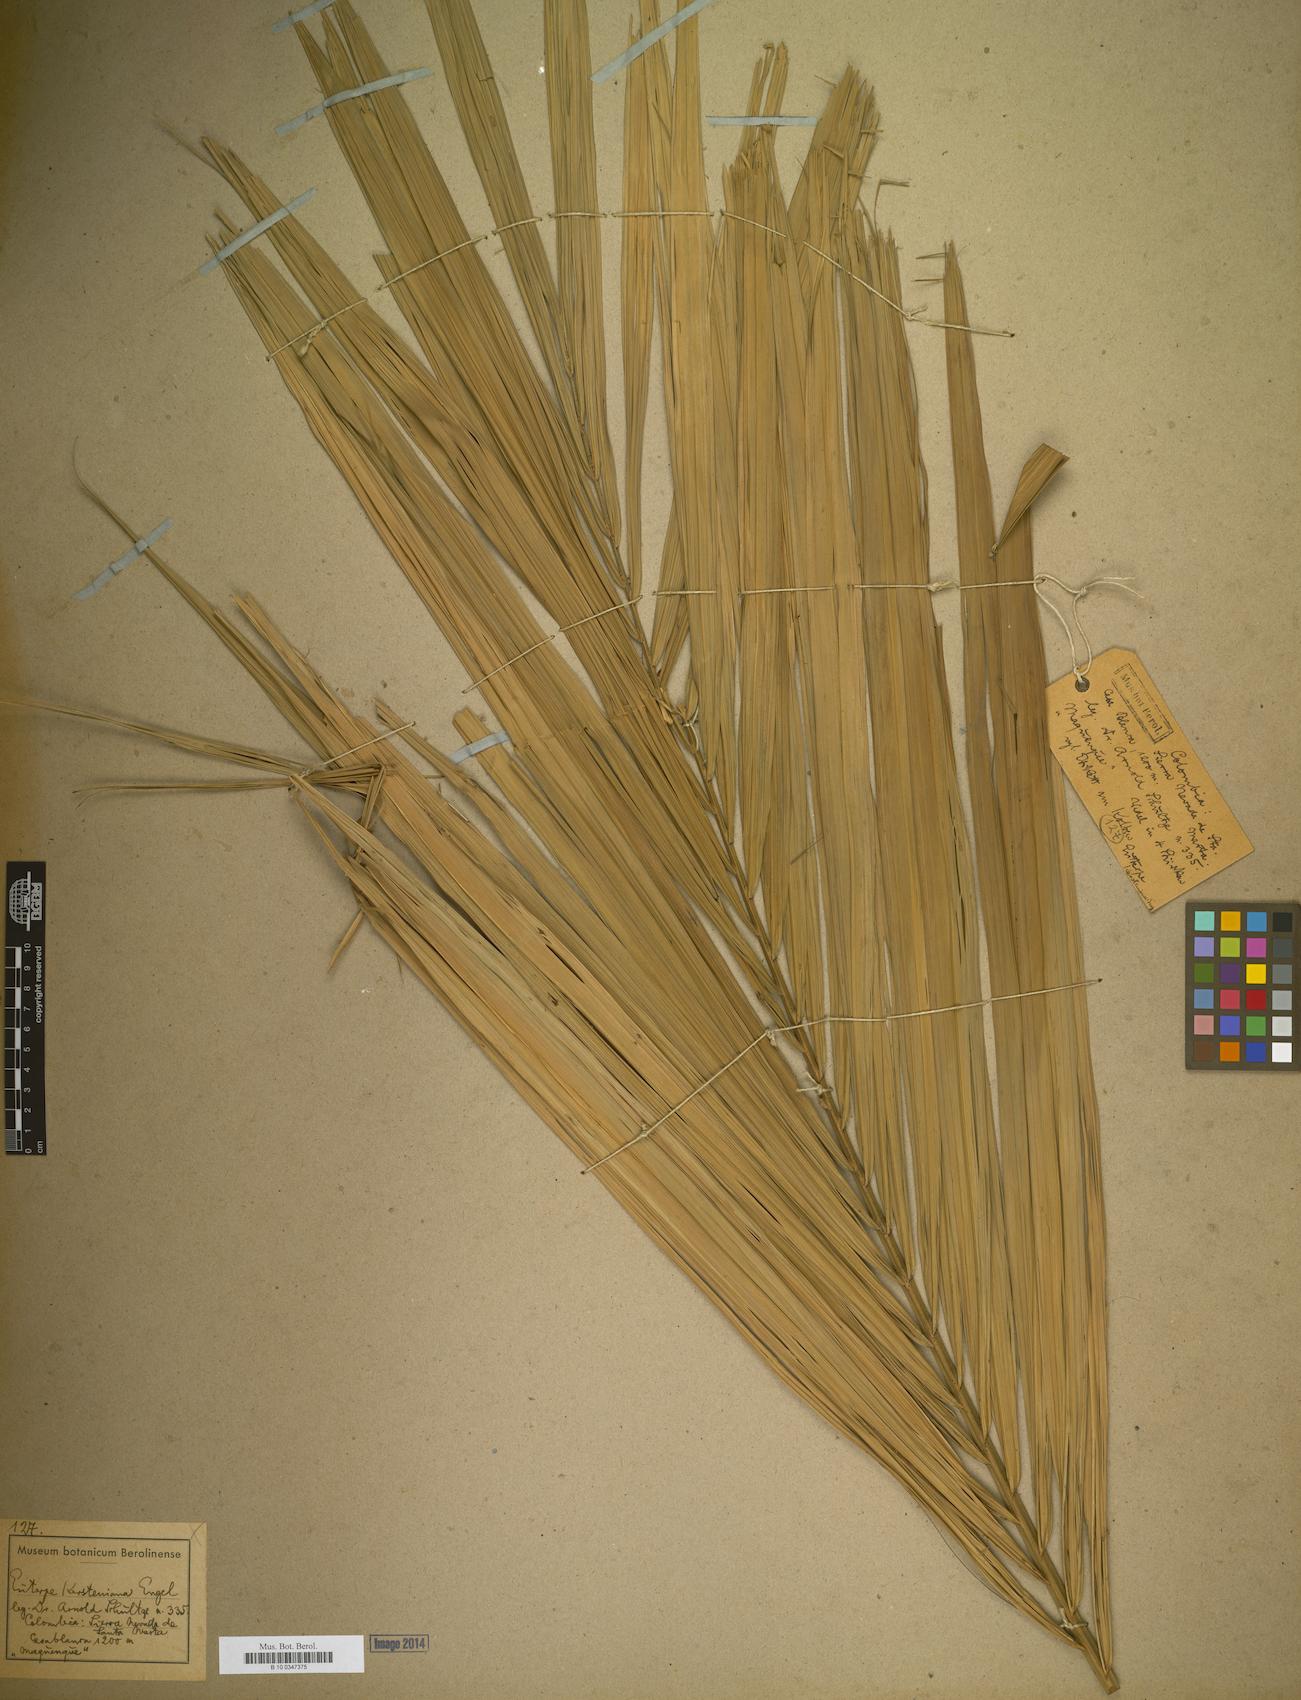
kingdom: Plantae
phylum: Tracheophyta
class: Liliopsida
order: Arecales
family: Arecaceae
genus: Euterpe
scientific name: Euterpe
